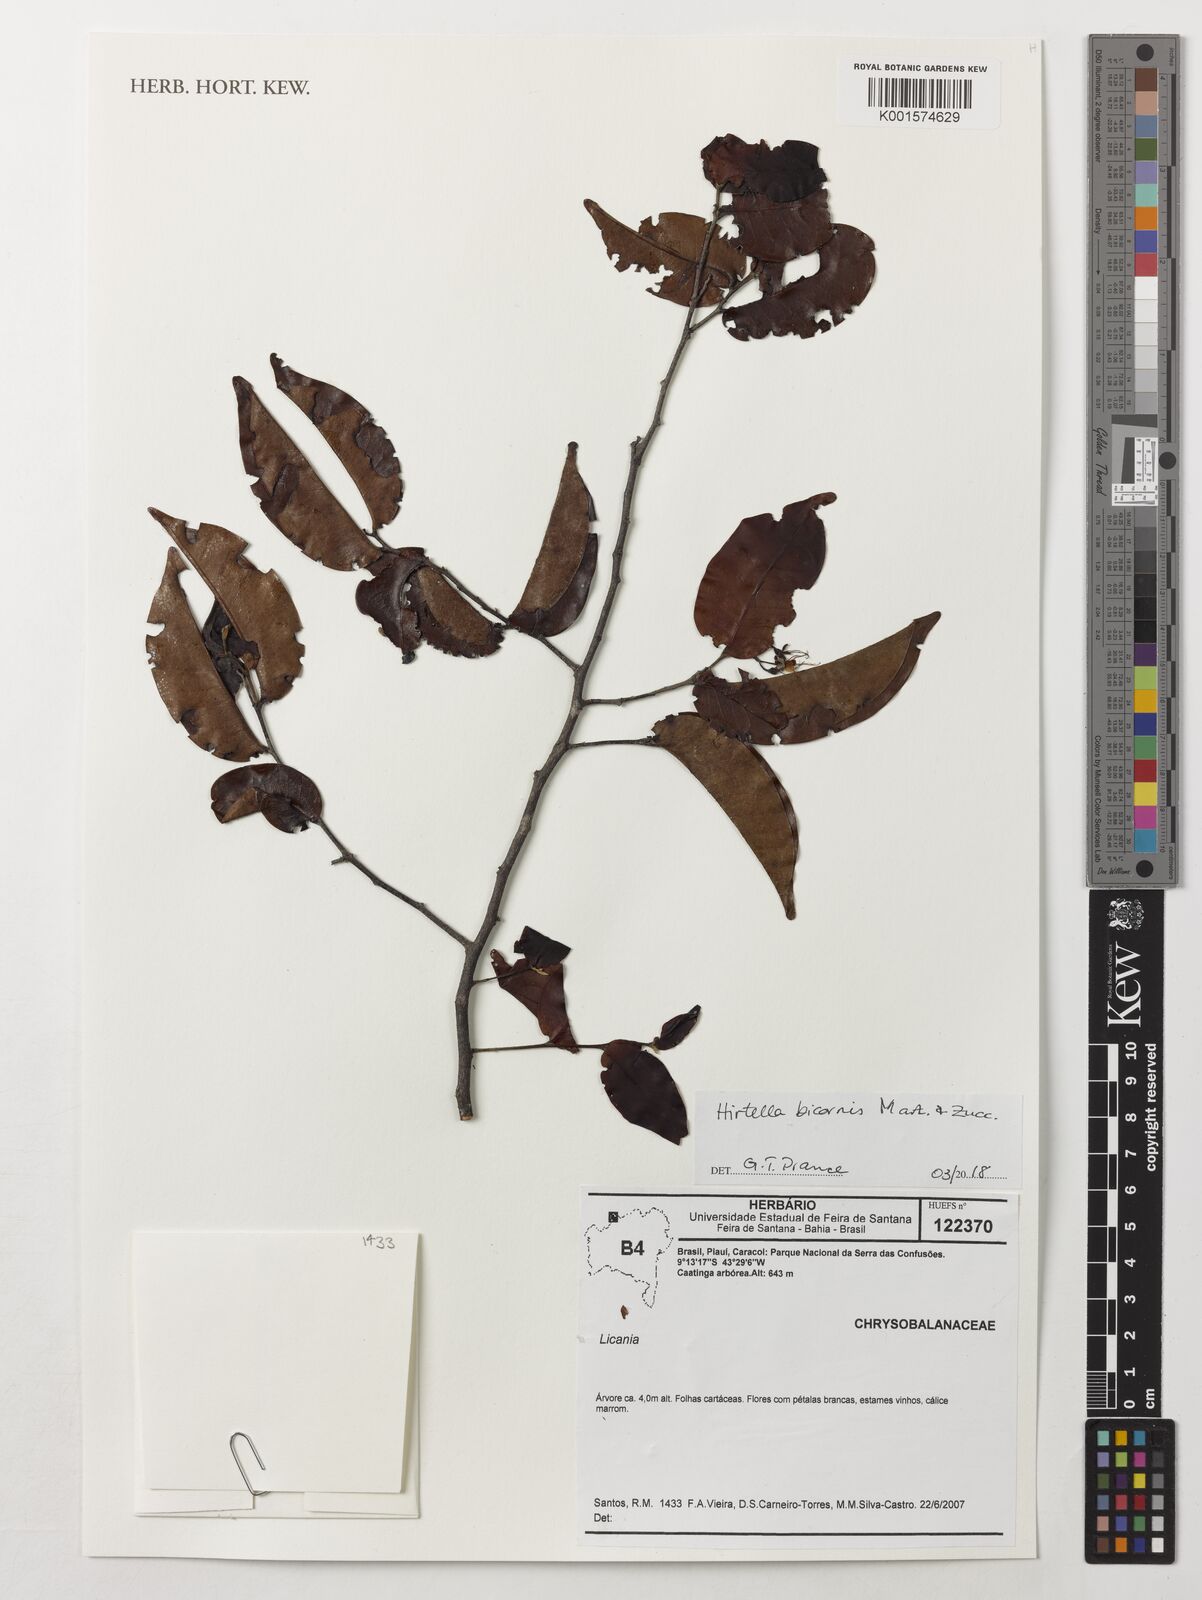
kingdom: Plantae
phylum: Tracheophyta
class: Magnoliopsida
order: Malpighiales
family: Chrysobalanaceae
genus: Hirtella
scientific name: Hirtella bicornis
